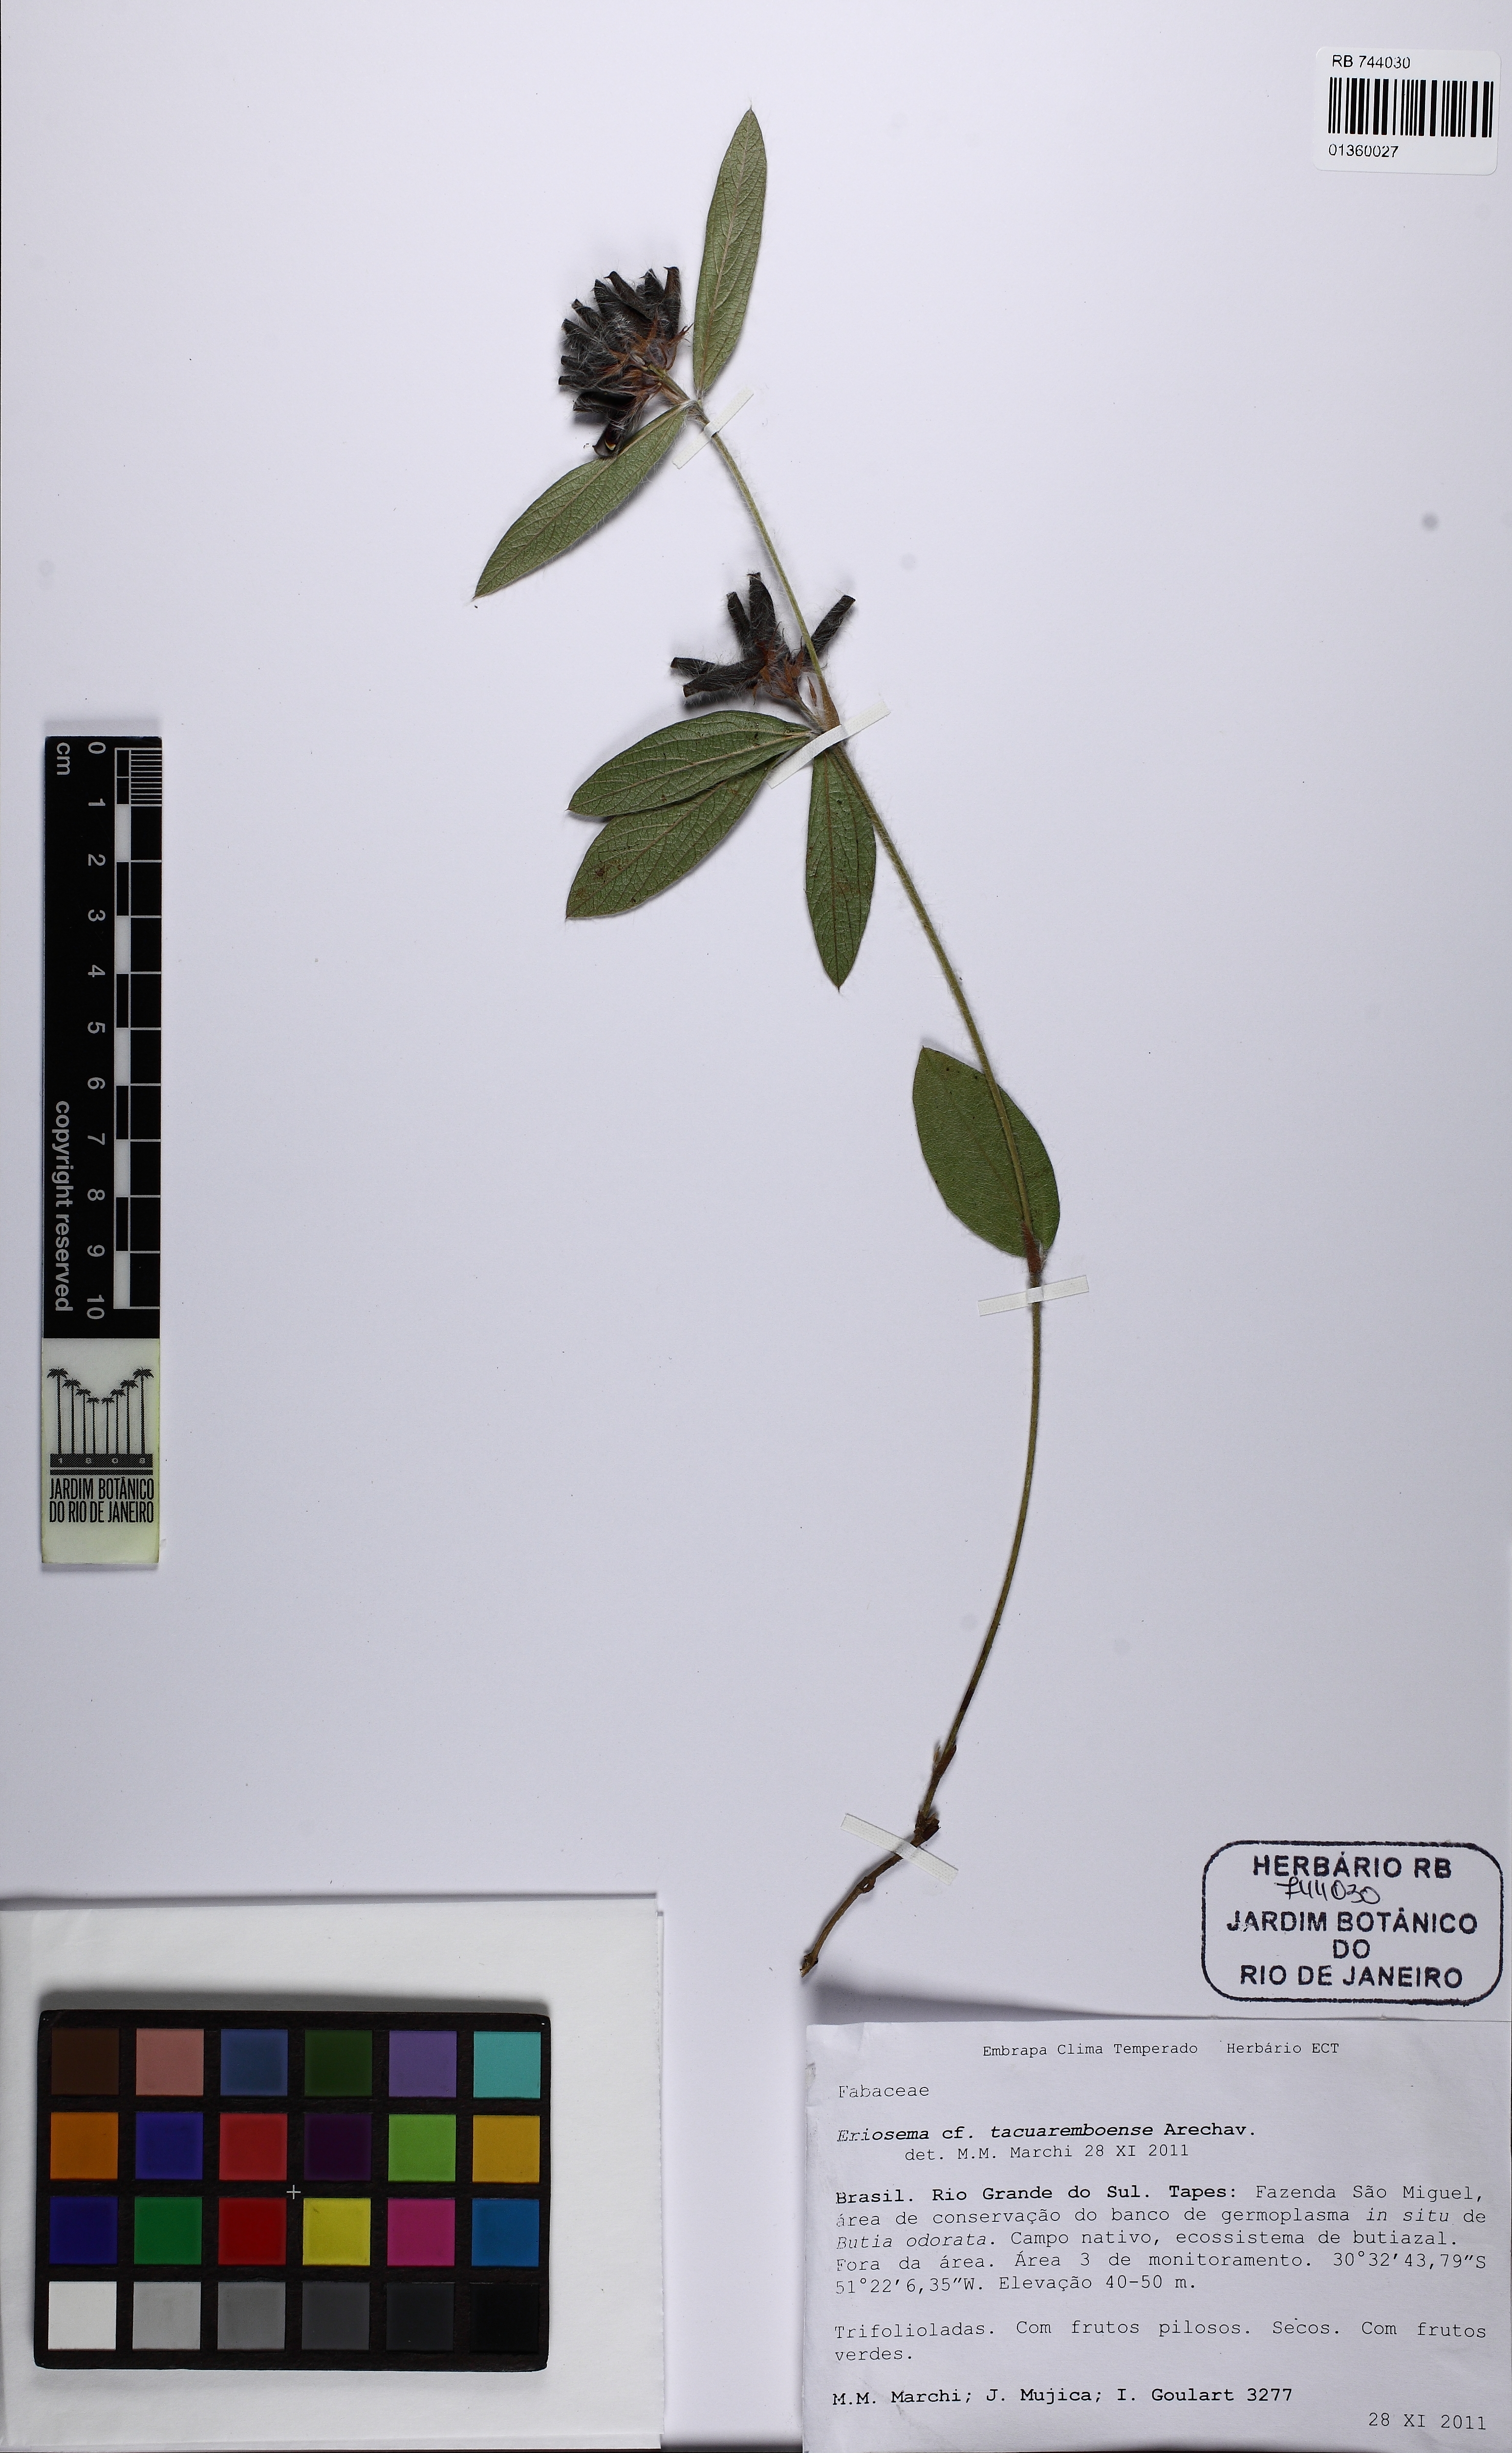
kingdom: Plantae
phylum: Tracheophyta
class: Magnoliopsida
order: Fabales
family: Fabaceae
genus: Eriosema
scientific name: Eriosema tacuaremboense
